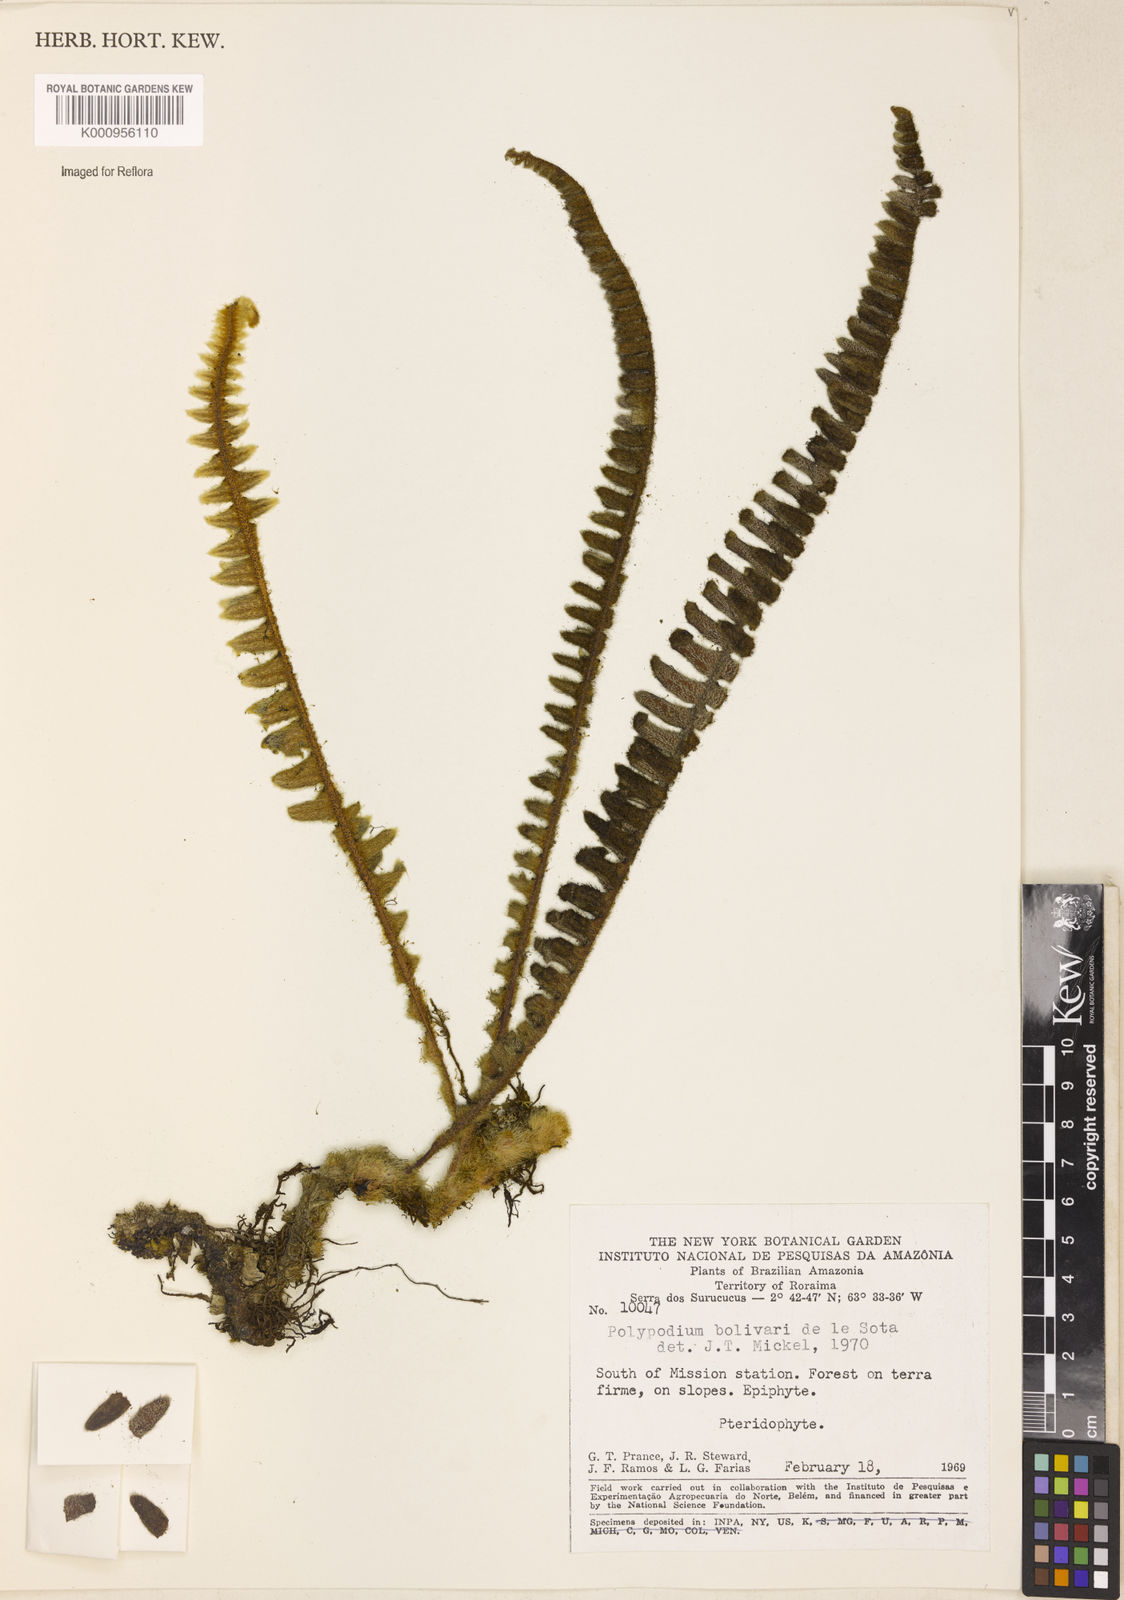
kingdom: Plantae
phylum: Tracheophyta
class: Polypodiopsida
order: Polypodiales
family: Polypodiaceae
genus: Pleopeltis
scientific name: Pleopeltis bombycina
